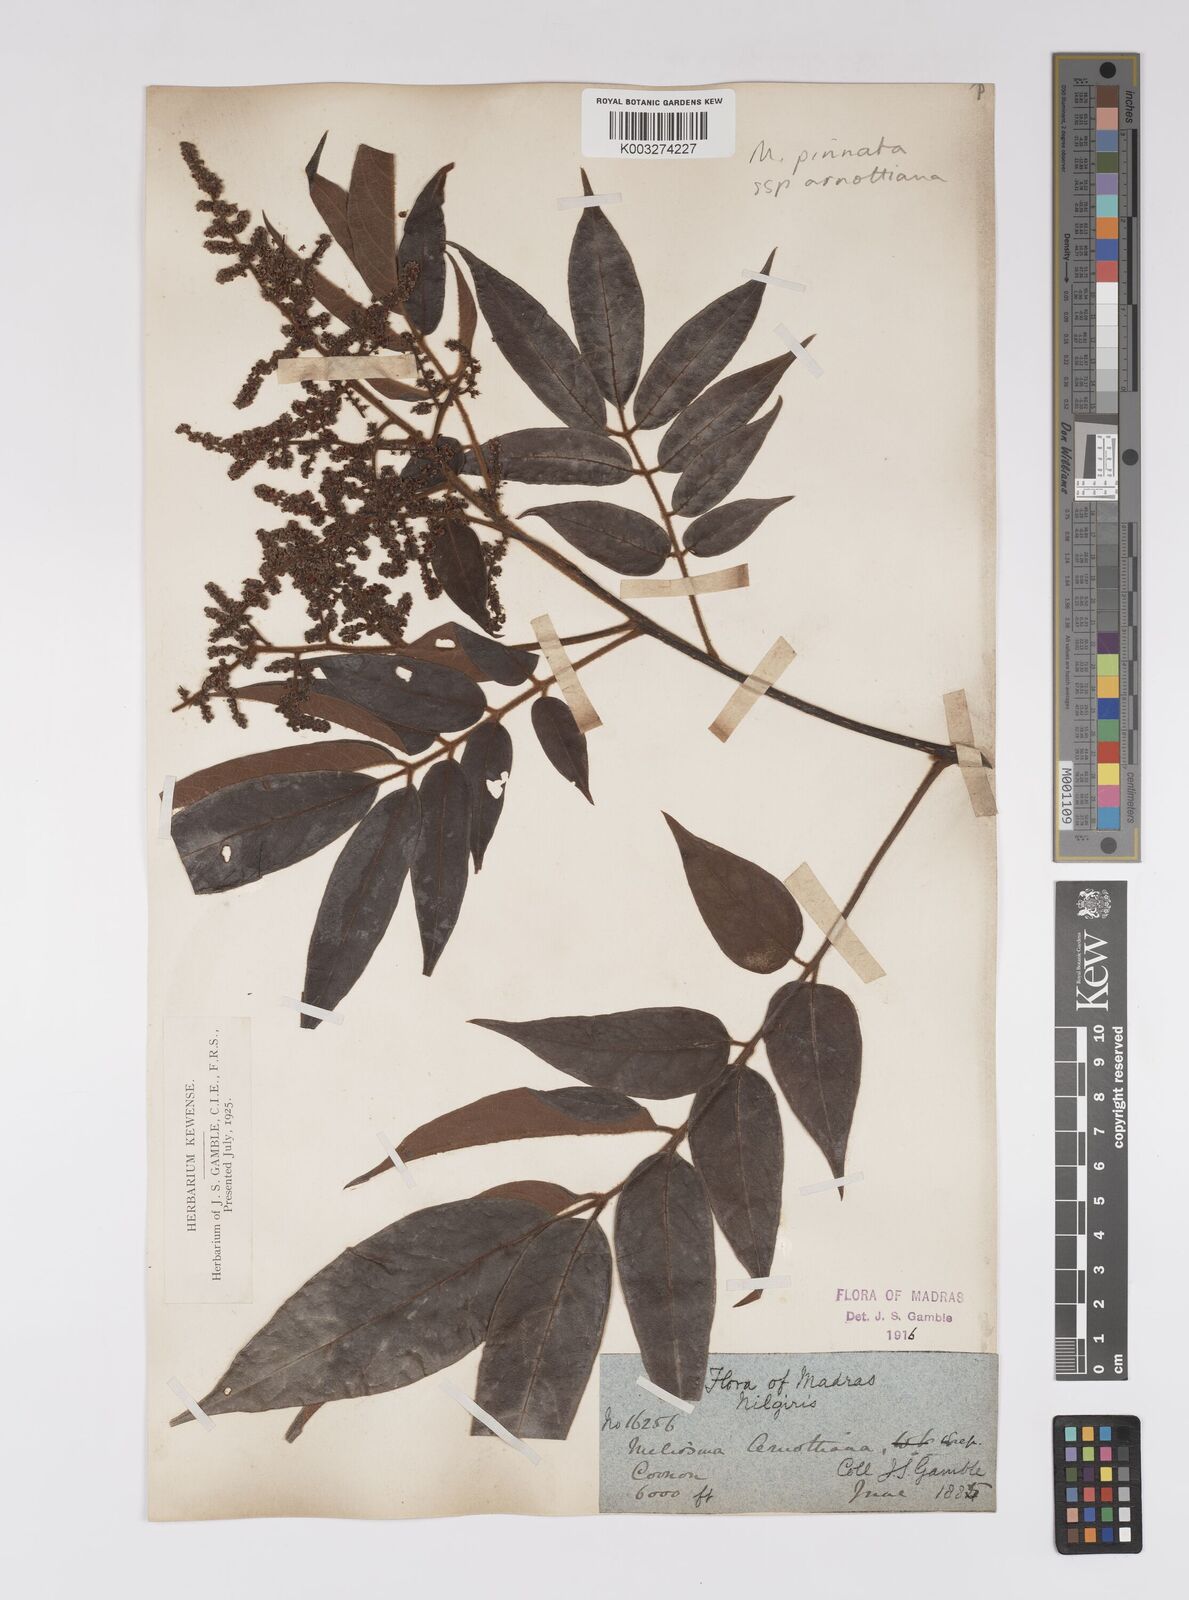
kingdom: Plantae
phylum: Tracheophyta
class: Magnoliopsida
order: Proteales
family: Sabiaceae
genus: Meliosma
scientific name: Meliosma rhoifolia
